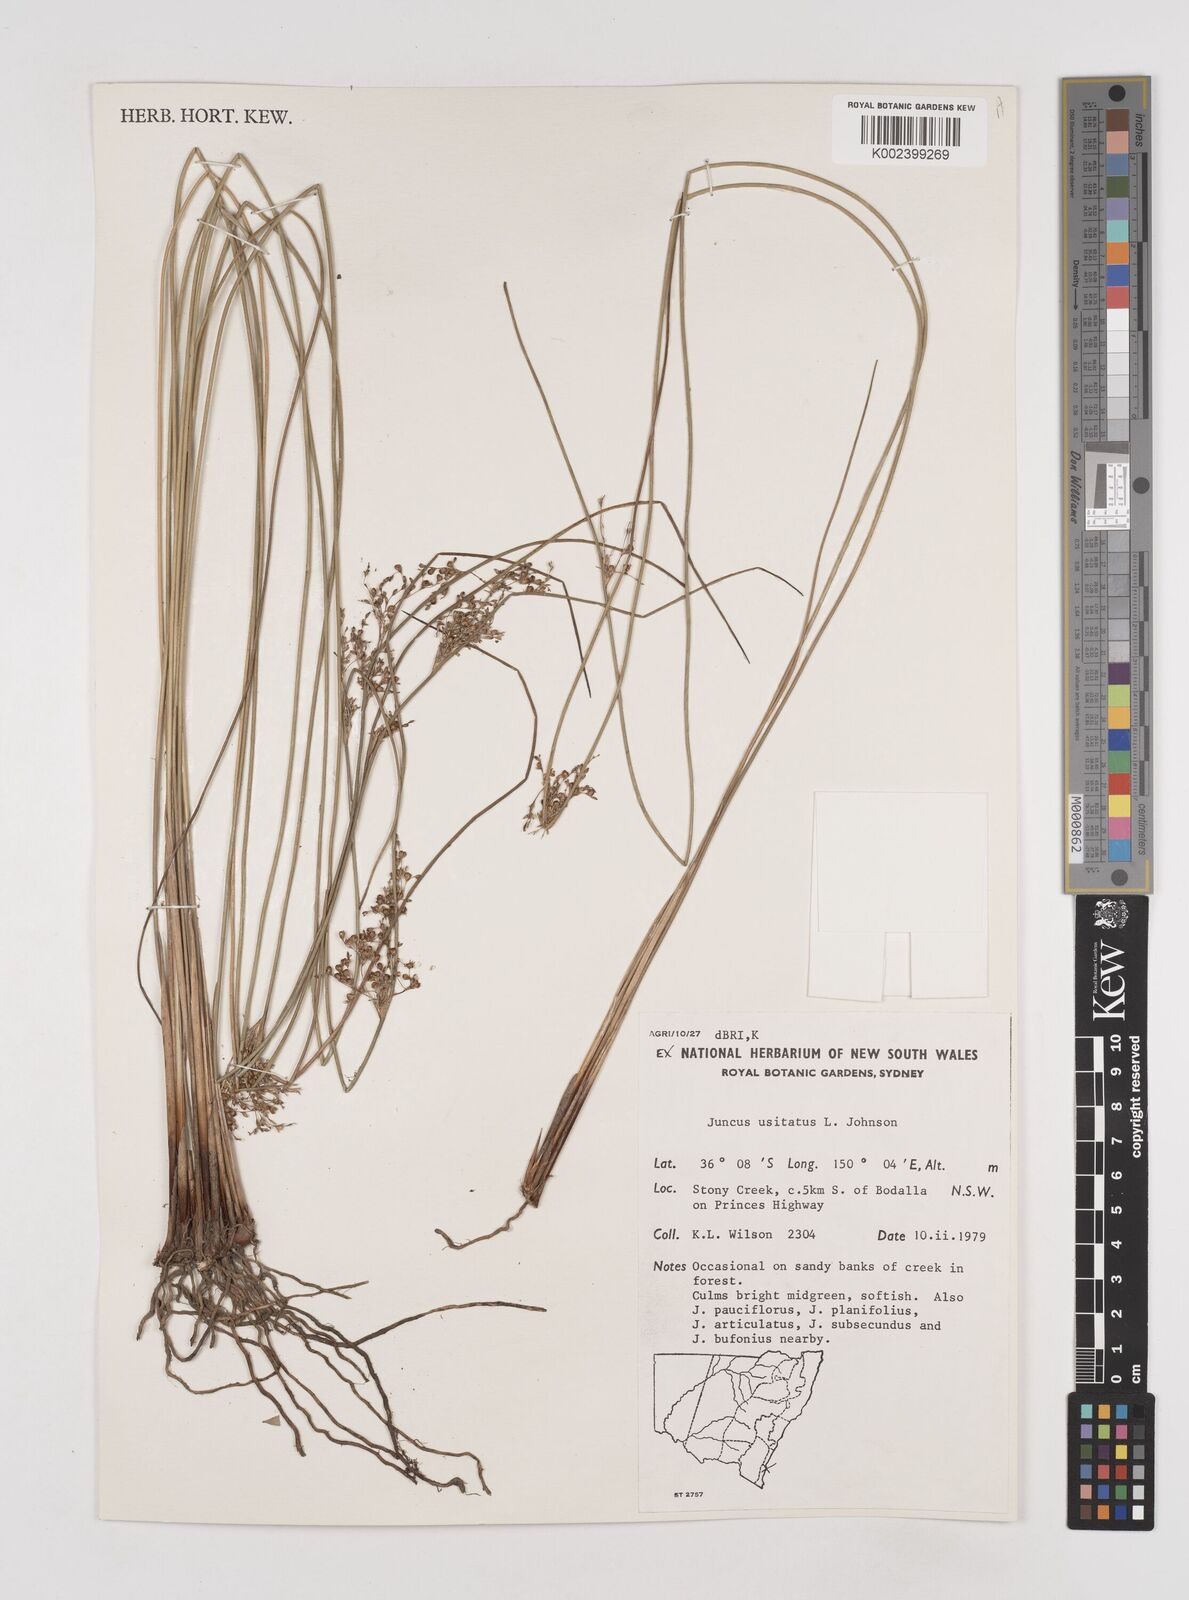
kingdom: Plantae
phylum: Tracheophyta
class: Liliopsida
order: Poales
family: Juncaceae
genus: Juncus
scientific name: Juncus usitatus
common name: Rush
